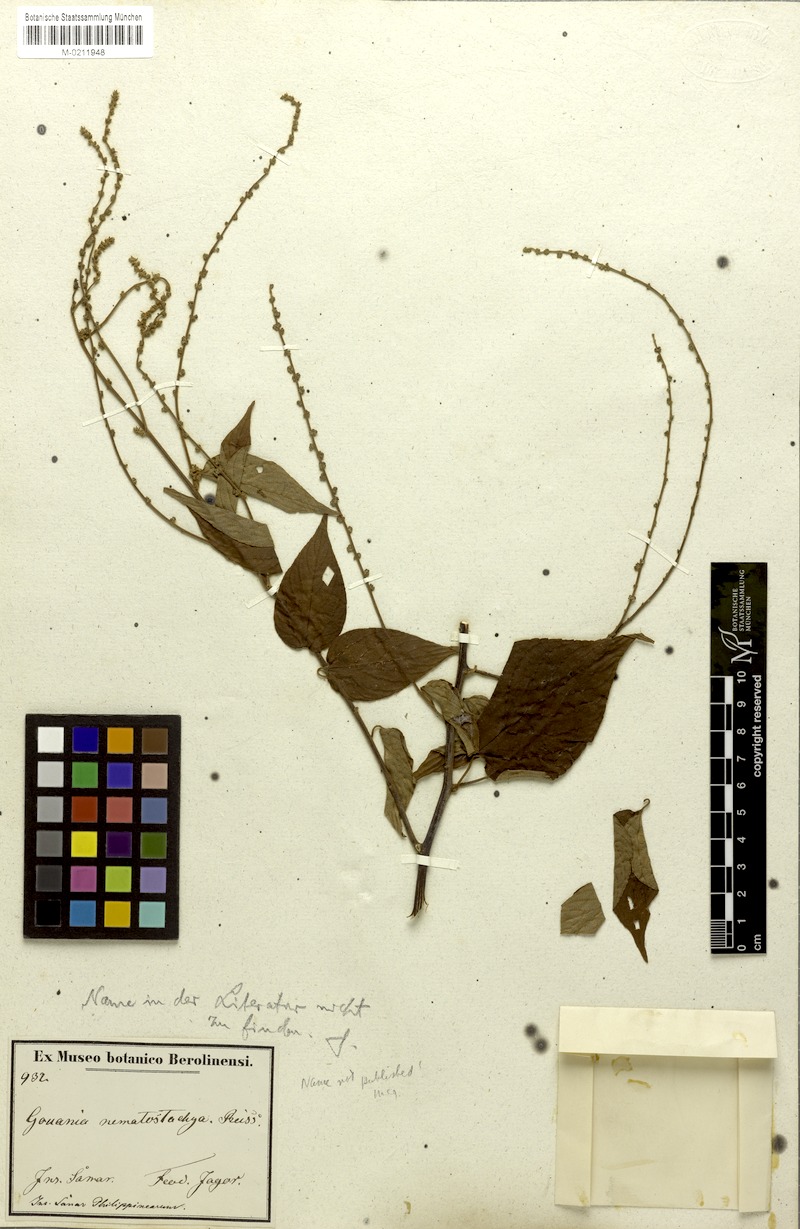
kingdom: Plantae
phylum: Tracheophyta
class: Magnoliopsida
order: Rosales
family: Rhamnaceae
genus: Gouania
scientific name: Gouania nematostachya
